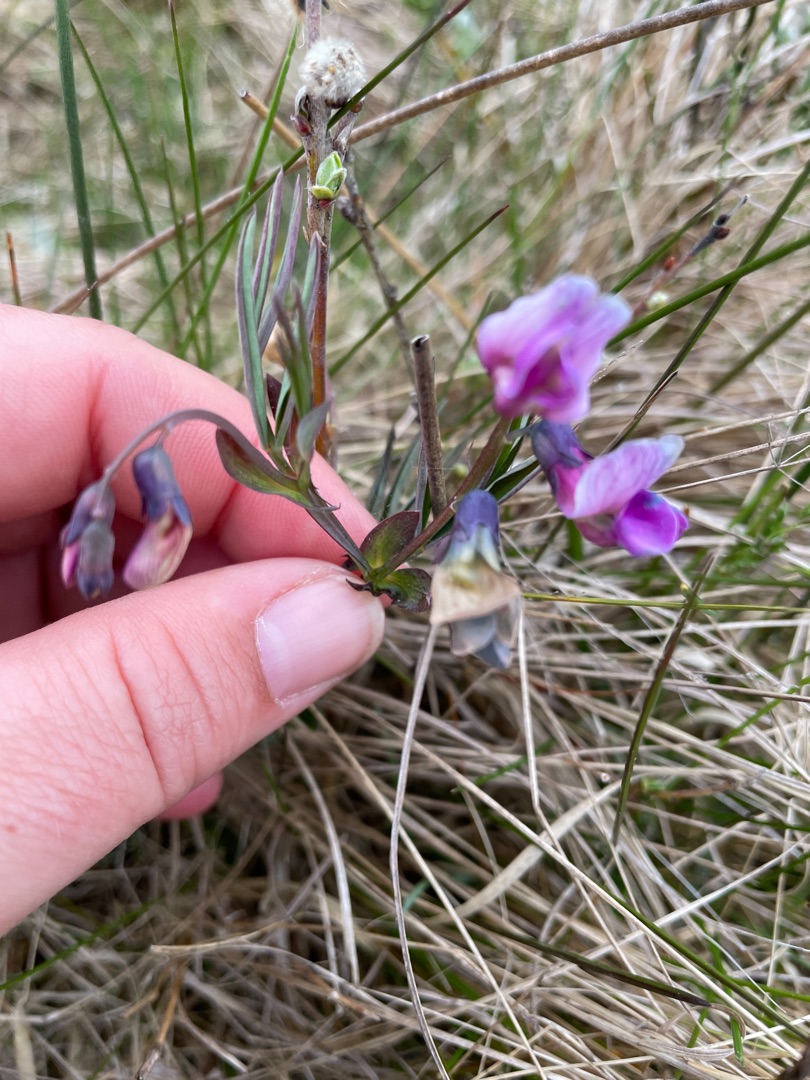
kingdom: Plantae
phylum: Tracheophyta
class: Magnoliopsida
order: Fabales
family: Fabaceae
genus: Lathyrus
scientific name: Lathyrus linifolius
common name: Krat-fladbælg
